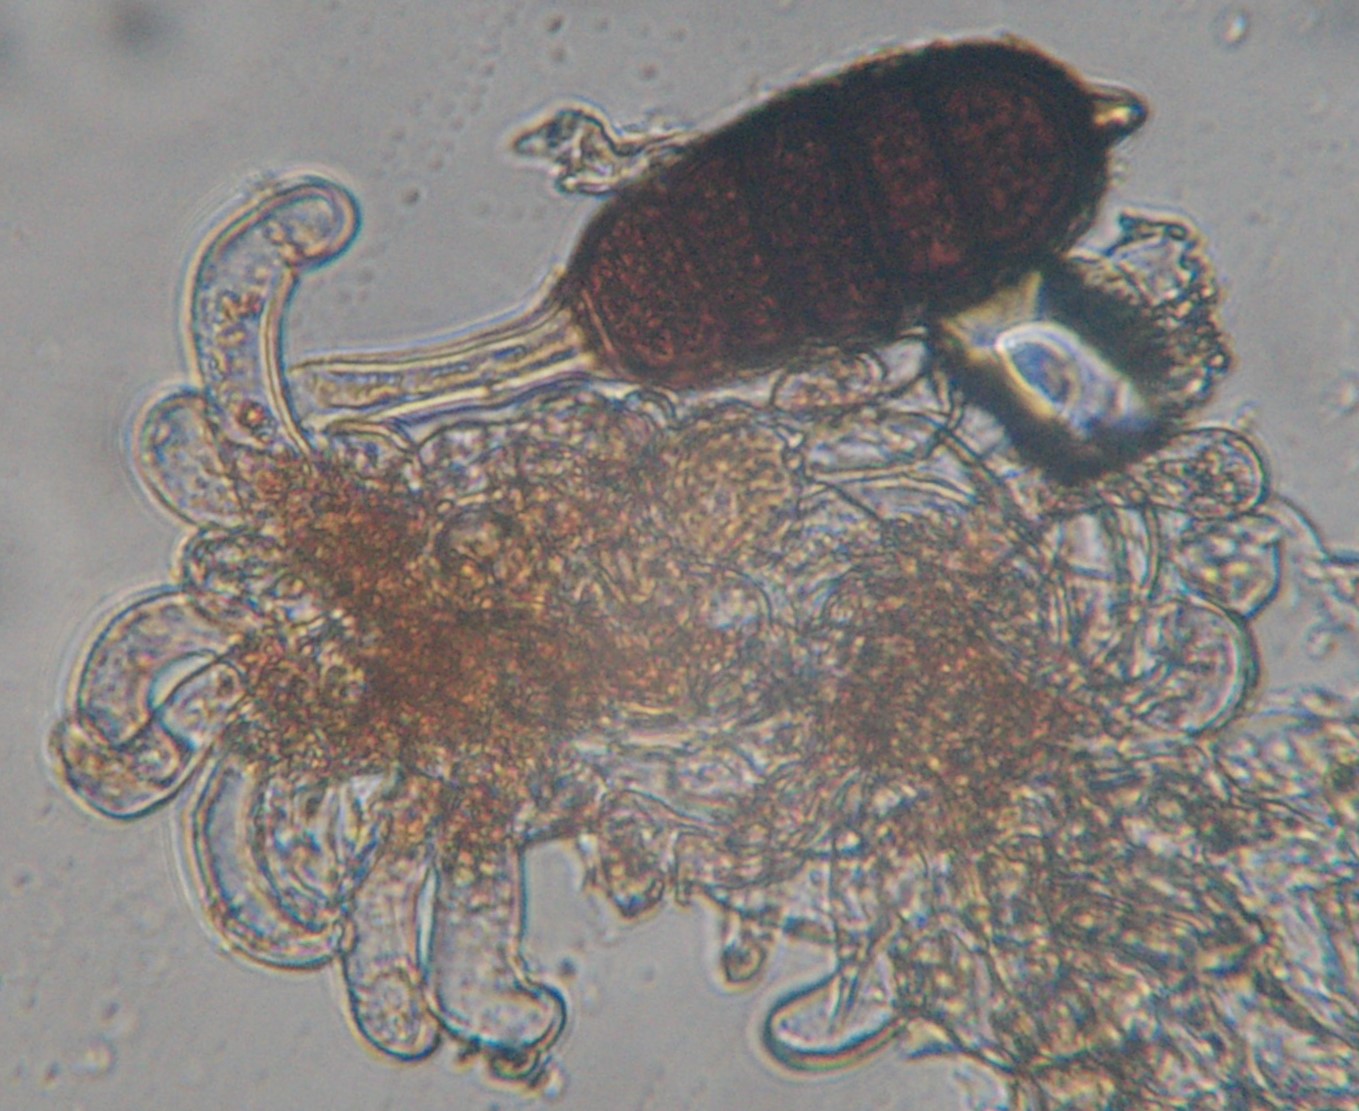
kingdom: Fungi
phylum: Basidiomycota
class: Pucciniomycetes
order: Pucciniales
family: Phragmidiaceae
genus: Phragmidium
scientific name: Phragmidium bulbosum
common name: brombær-flercellerust
